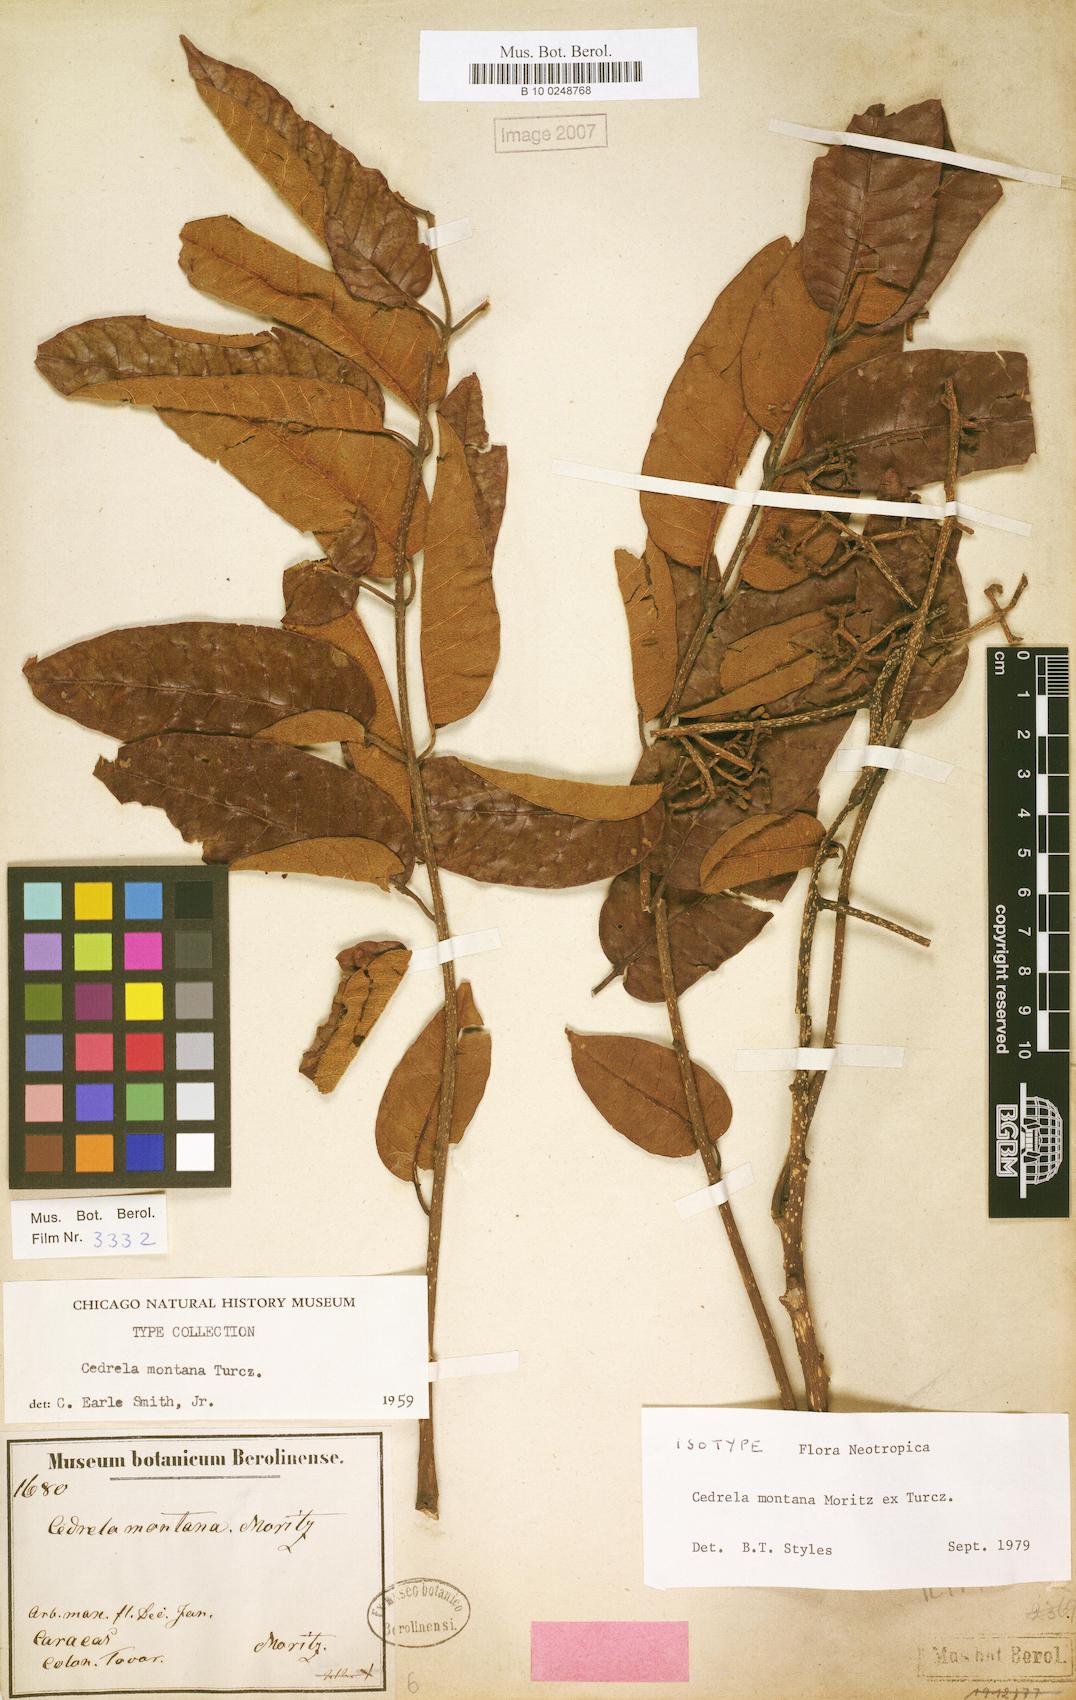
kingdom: Plantae
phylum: Tracheophyta
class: Magnoliopsida
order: Sapindales
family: Meliaceae
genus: Cedrela
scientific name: Cedrela montana
